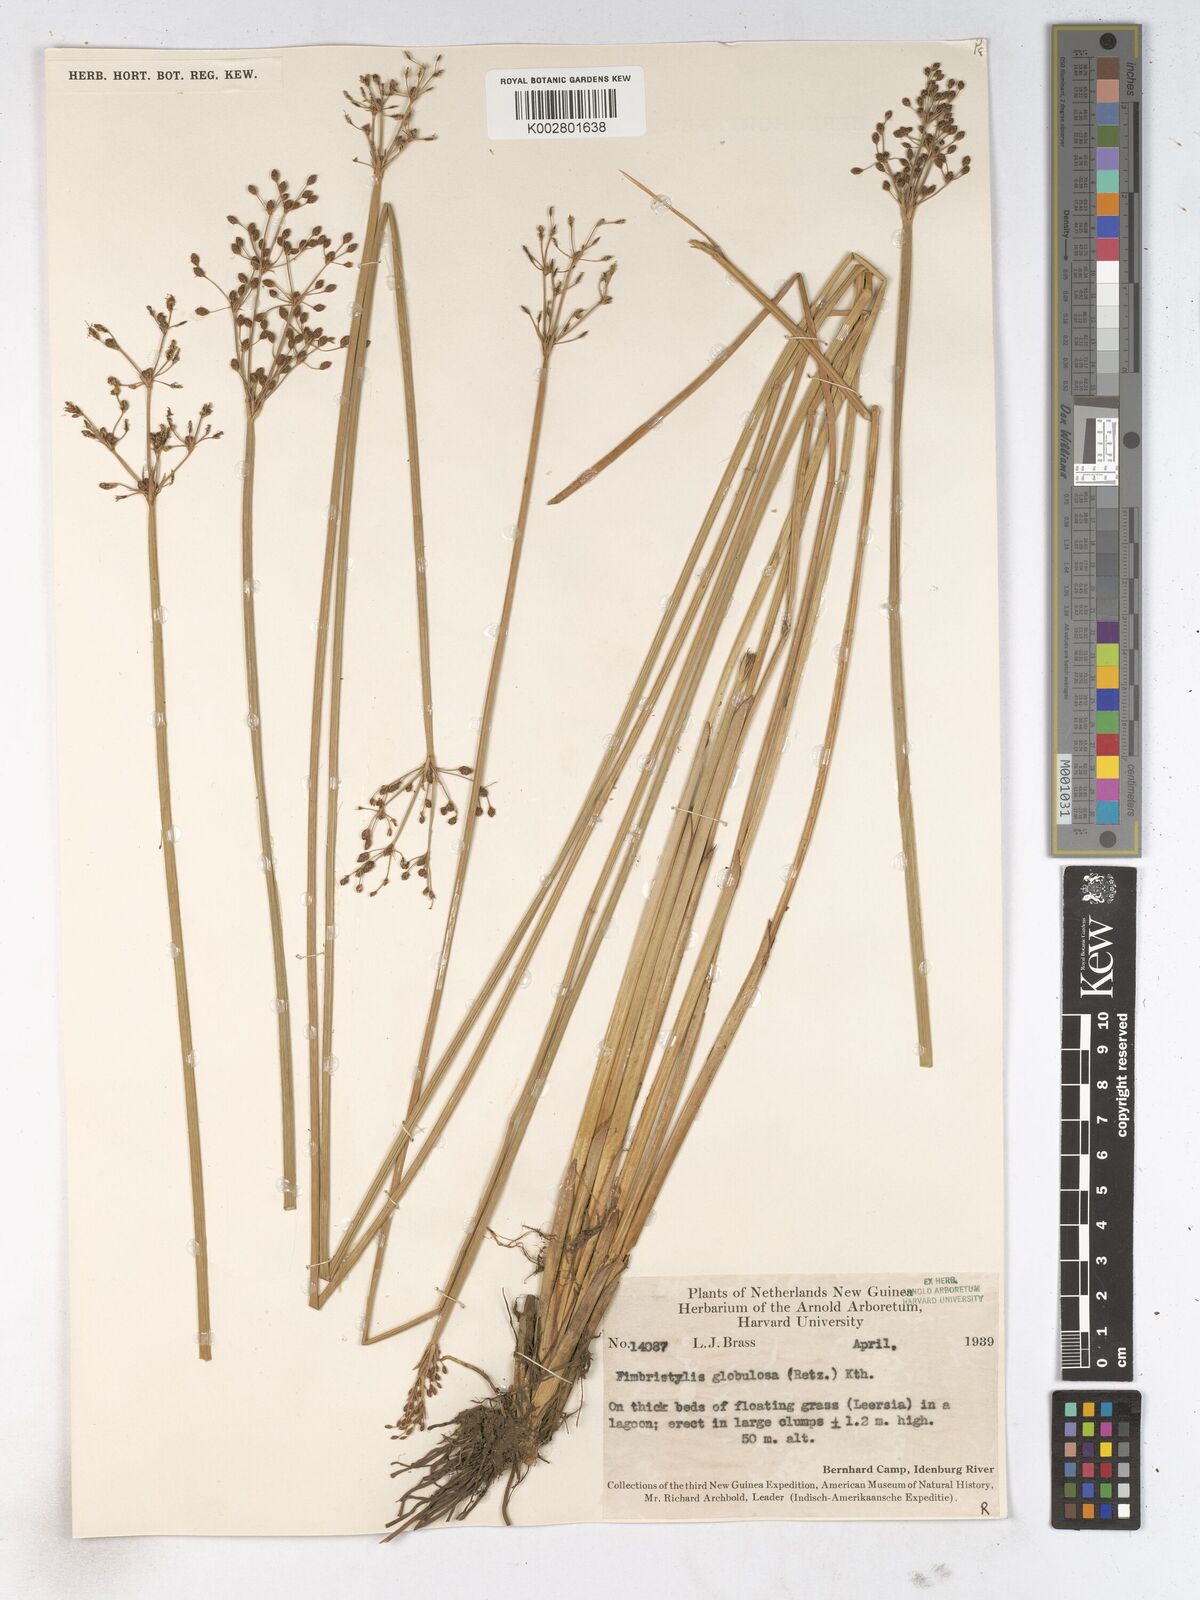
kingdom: Plantae
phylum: Tracheophyta
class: Liliopsida
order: Poales
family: Cyperaceae
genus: Fimbristylis
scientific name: Fimbristylis umbellaris
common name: Globular fimbristylis
